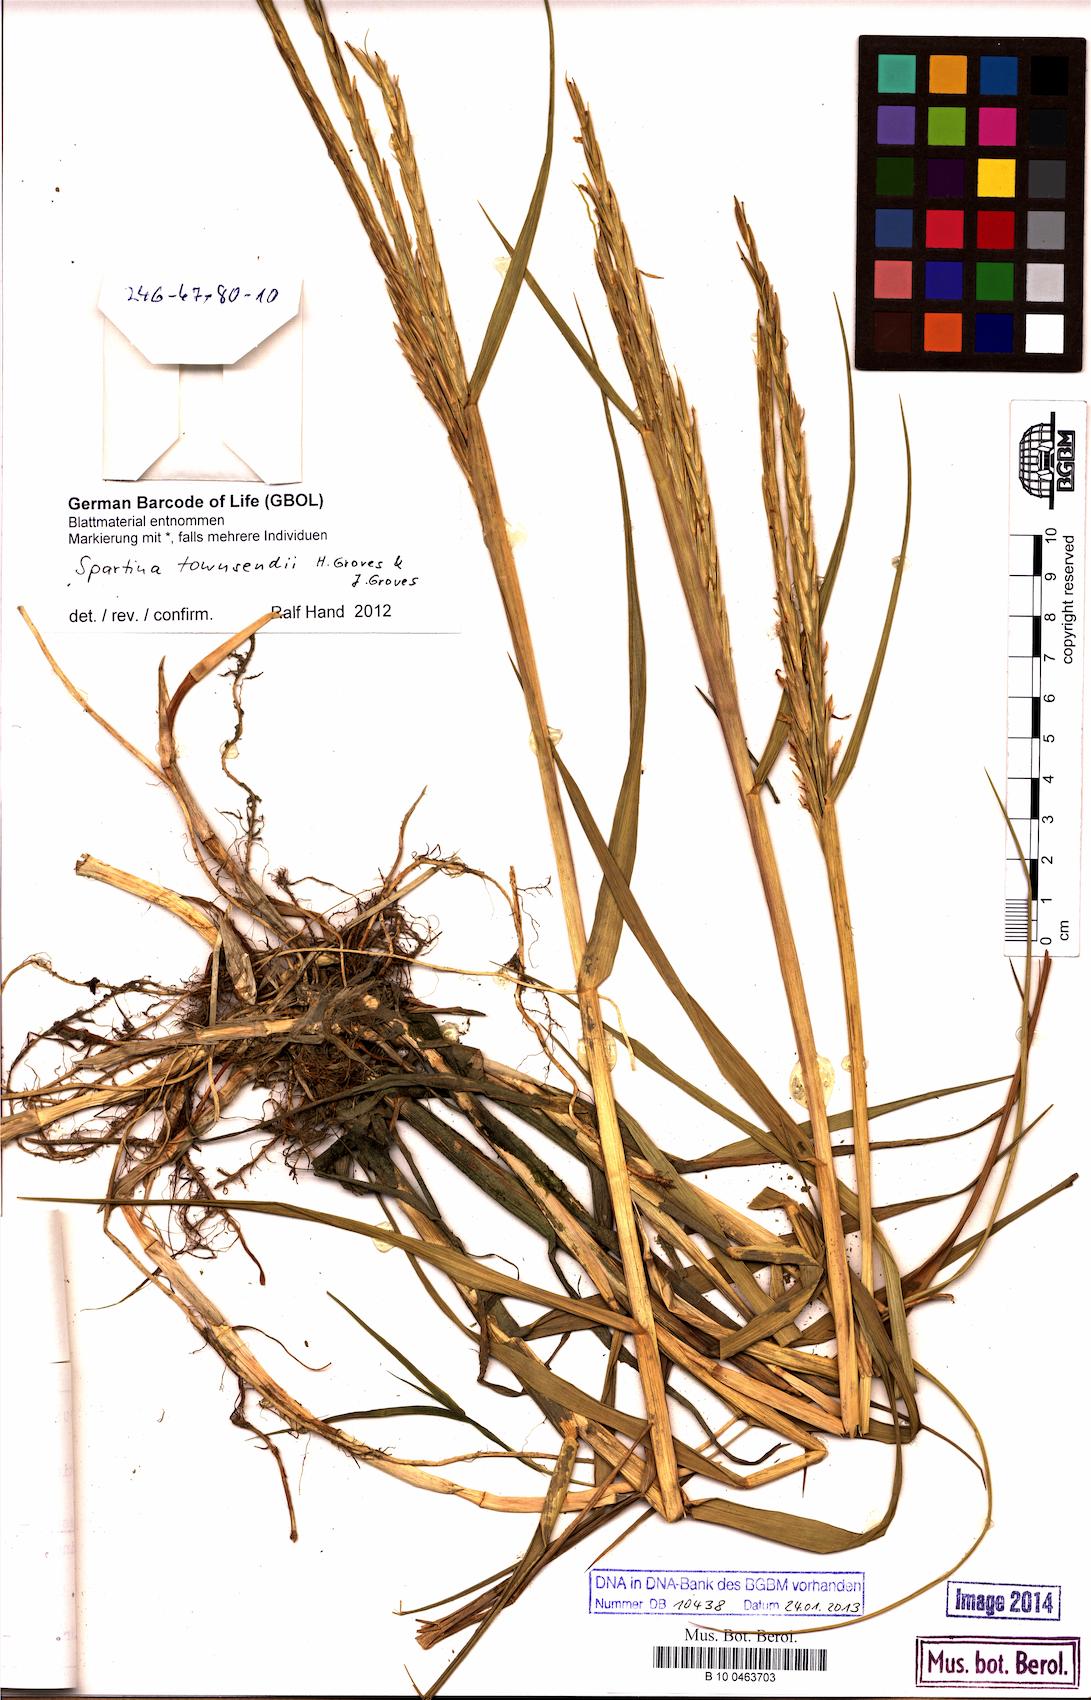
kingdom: Plantae
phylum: Tracheophyta
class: Liliopsida
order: Poales
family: Poaceae
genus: Sporobolus
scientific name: Sporobolus townsendii
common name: Townsend's cordgrass
